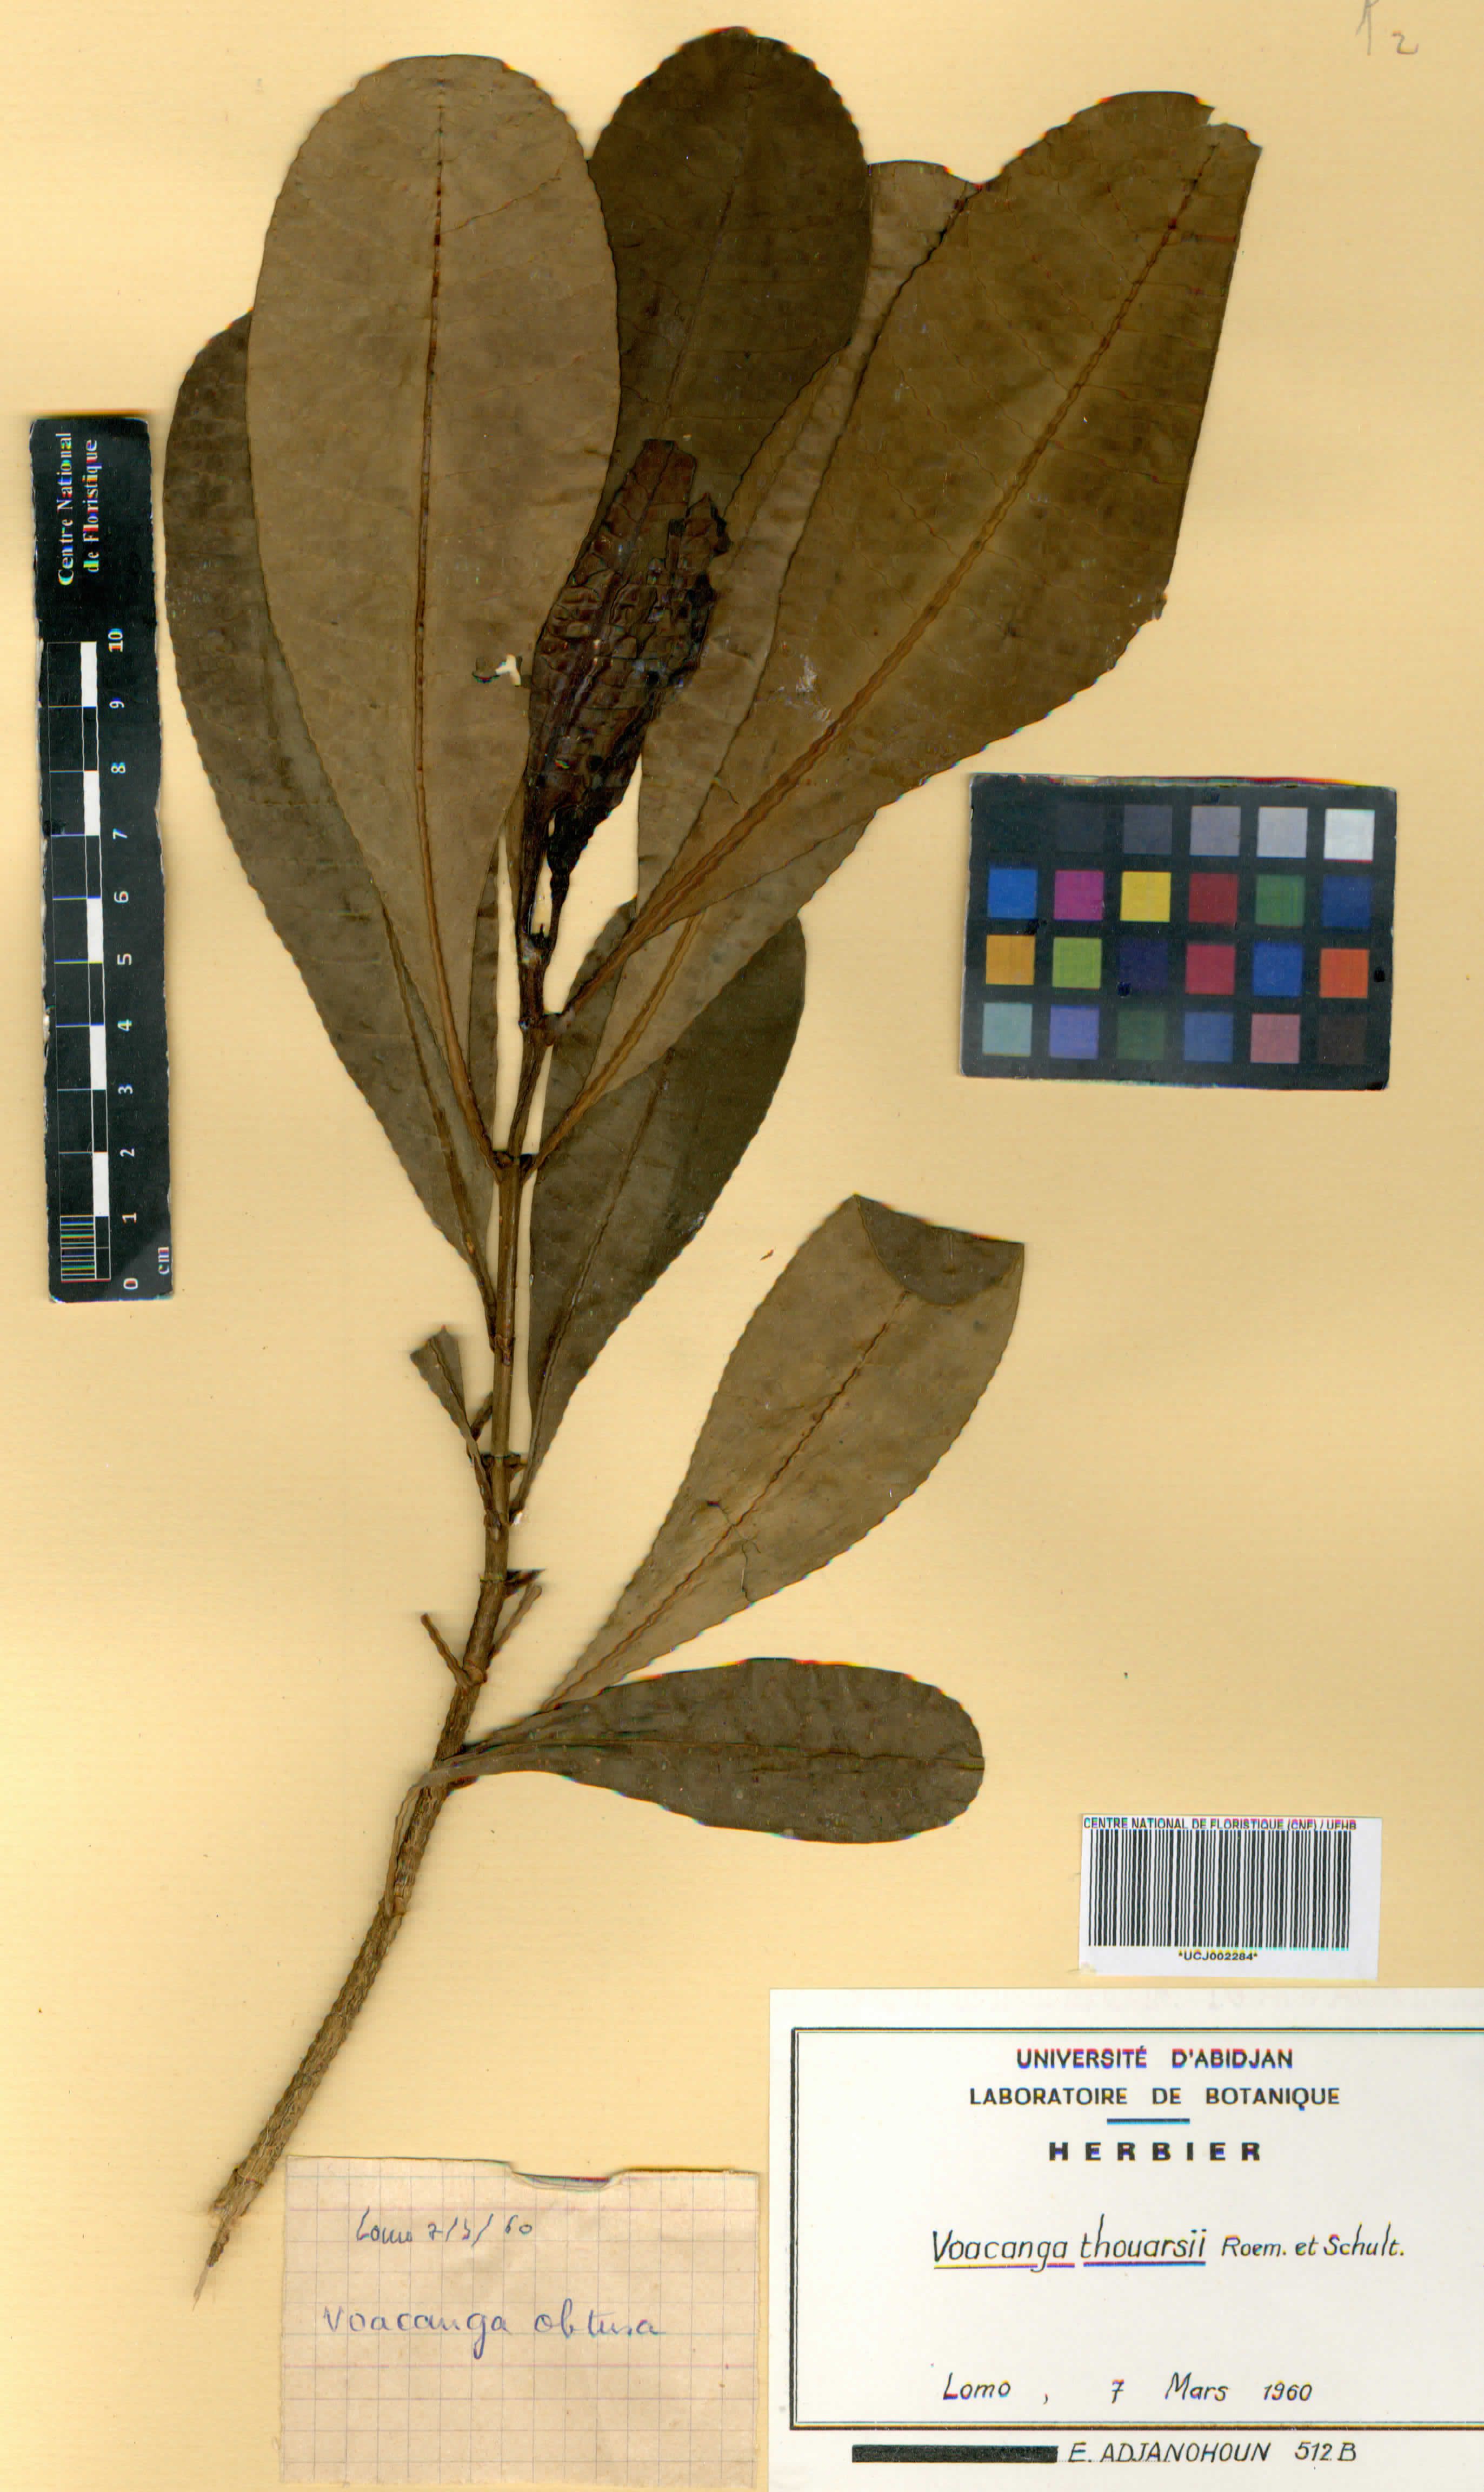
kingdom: Plantae
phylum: Tracheophyta
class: Magnoliopsida
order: Gentianales
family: Apocynaceae
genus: Voacanga
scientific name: Voacanga thouarsii
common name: Wild frangipani
